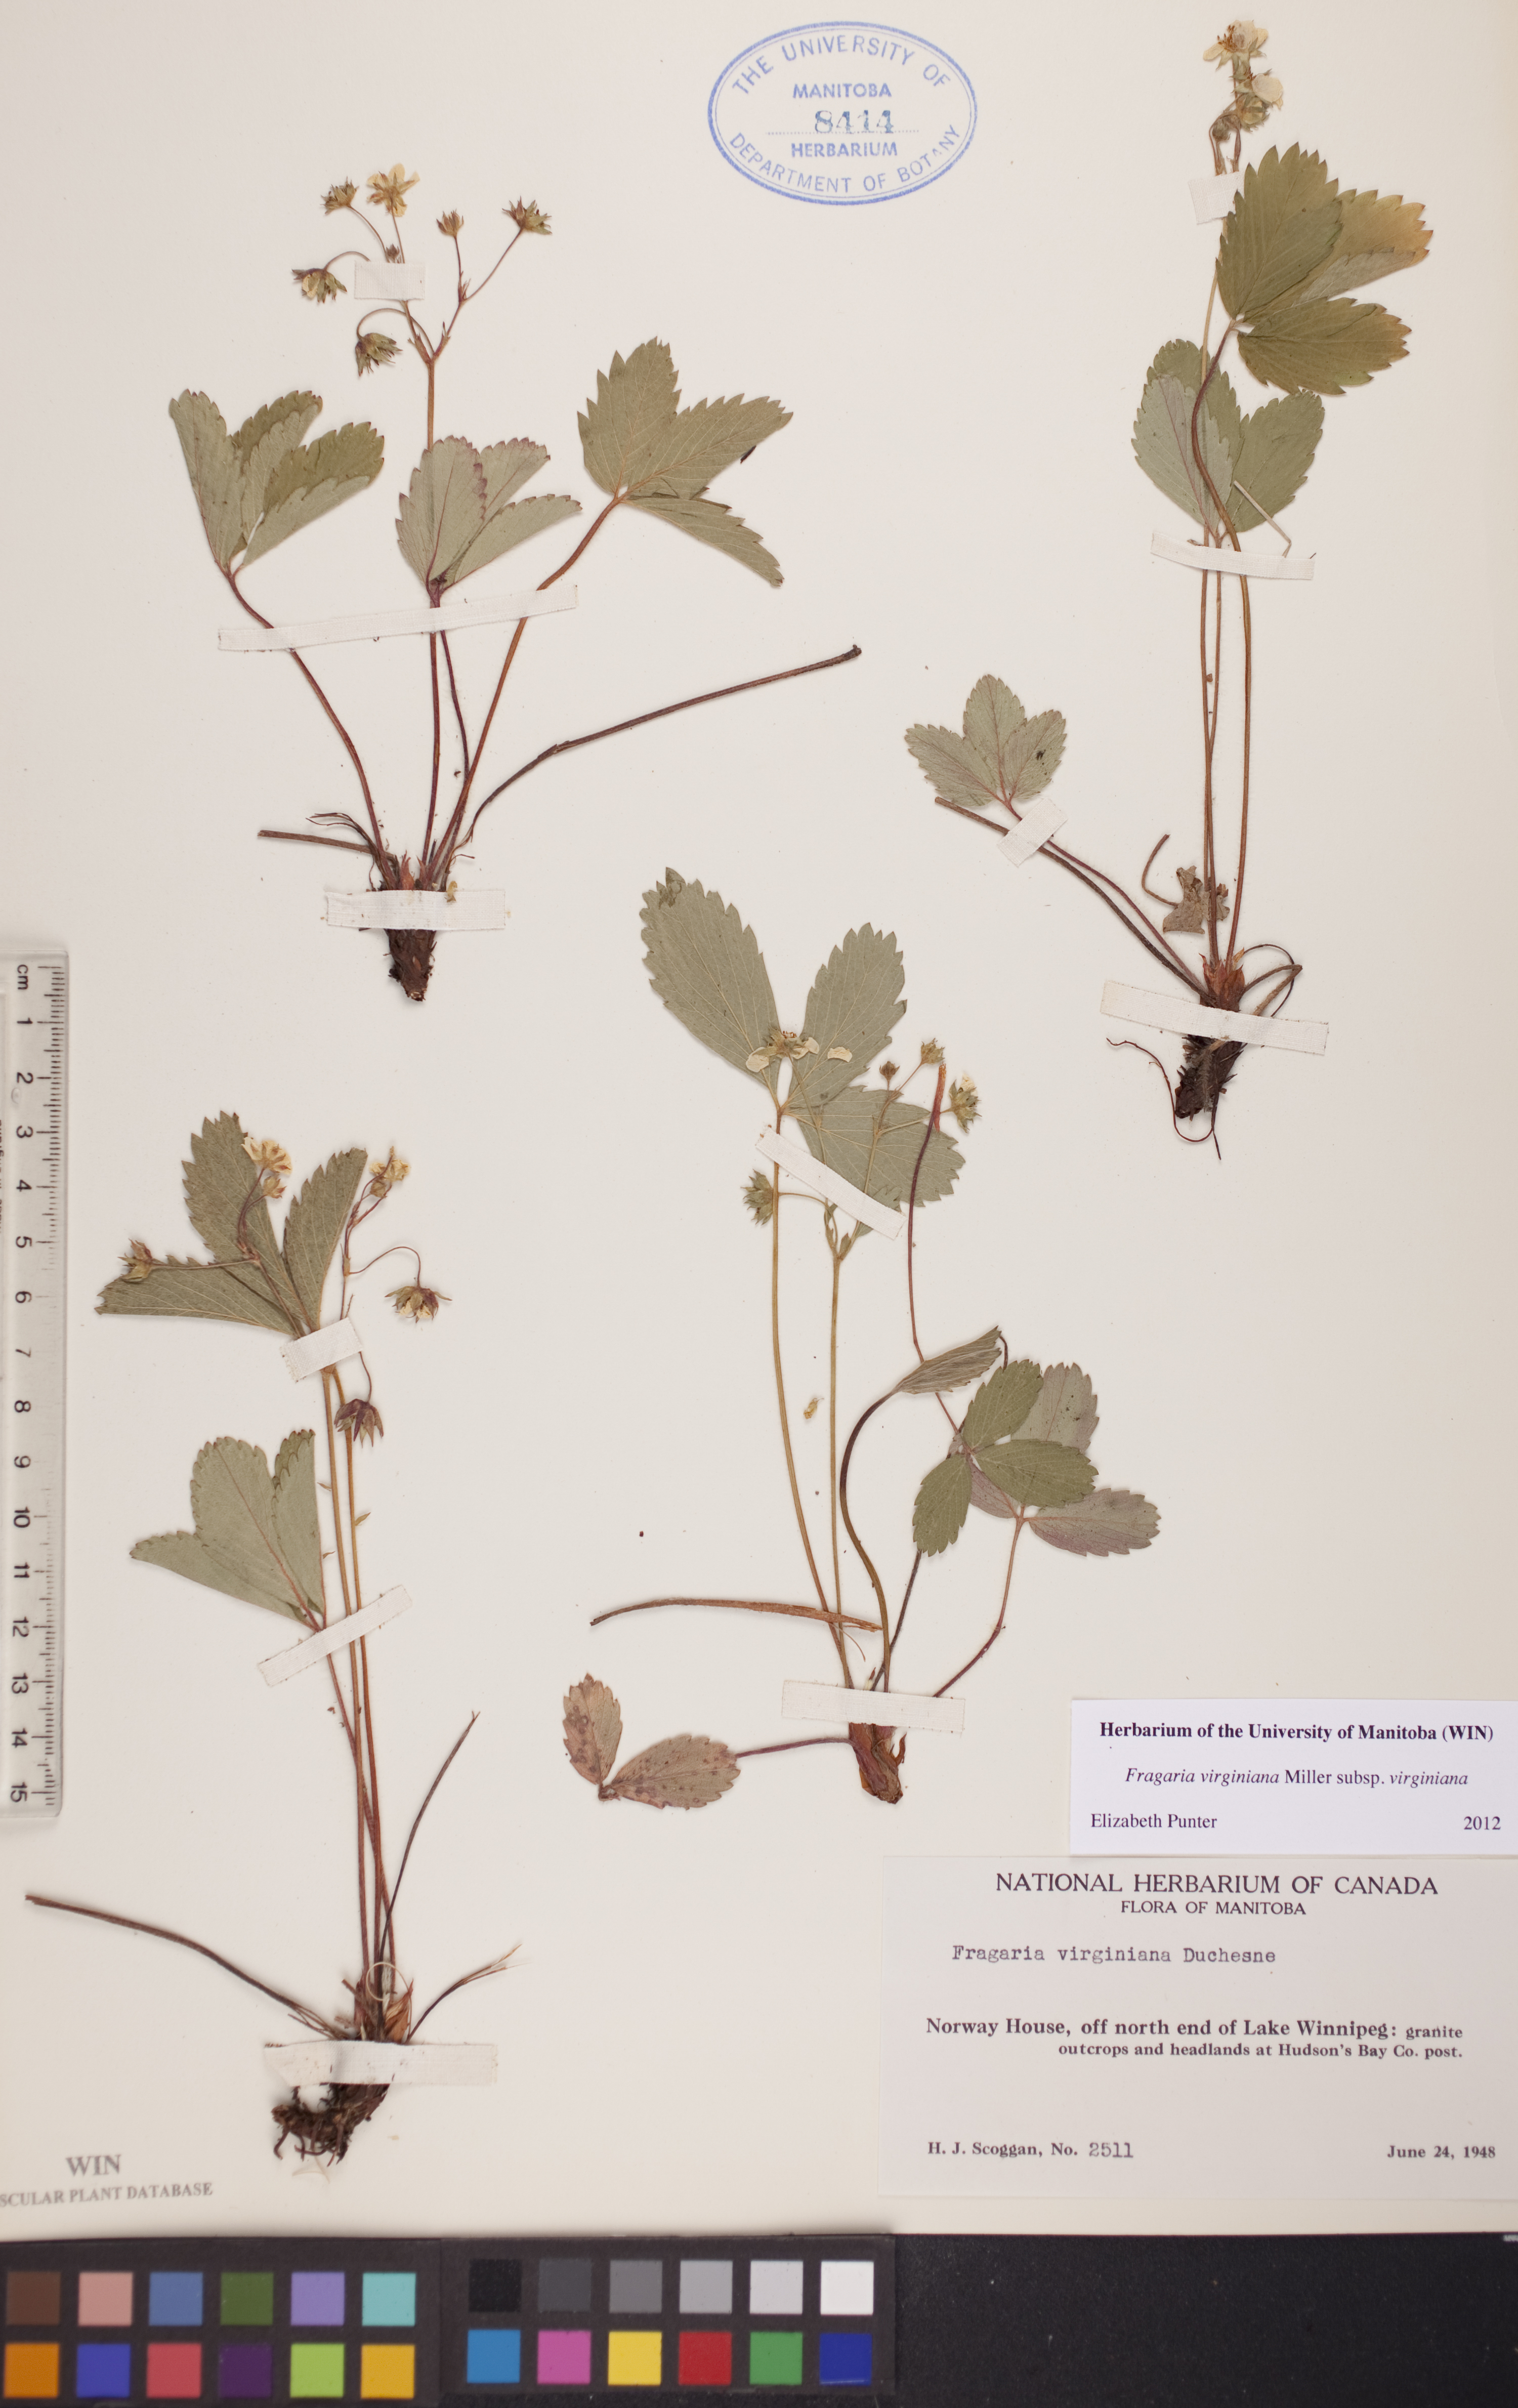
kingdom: Plantae
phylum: Tracheophyta
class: Magnoliopsida
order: Rosales
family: Rosaceae
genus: Fragaria
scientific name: Fragaria virginiana
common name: Thickleaved wild strawberry
